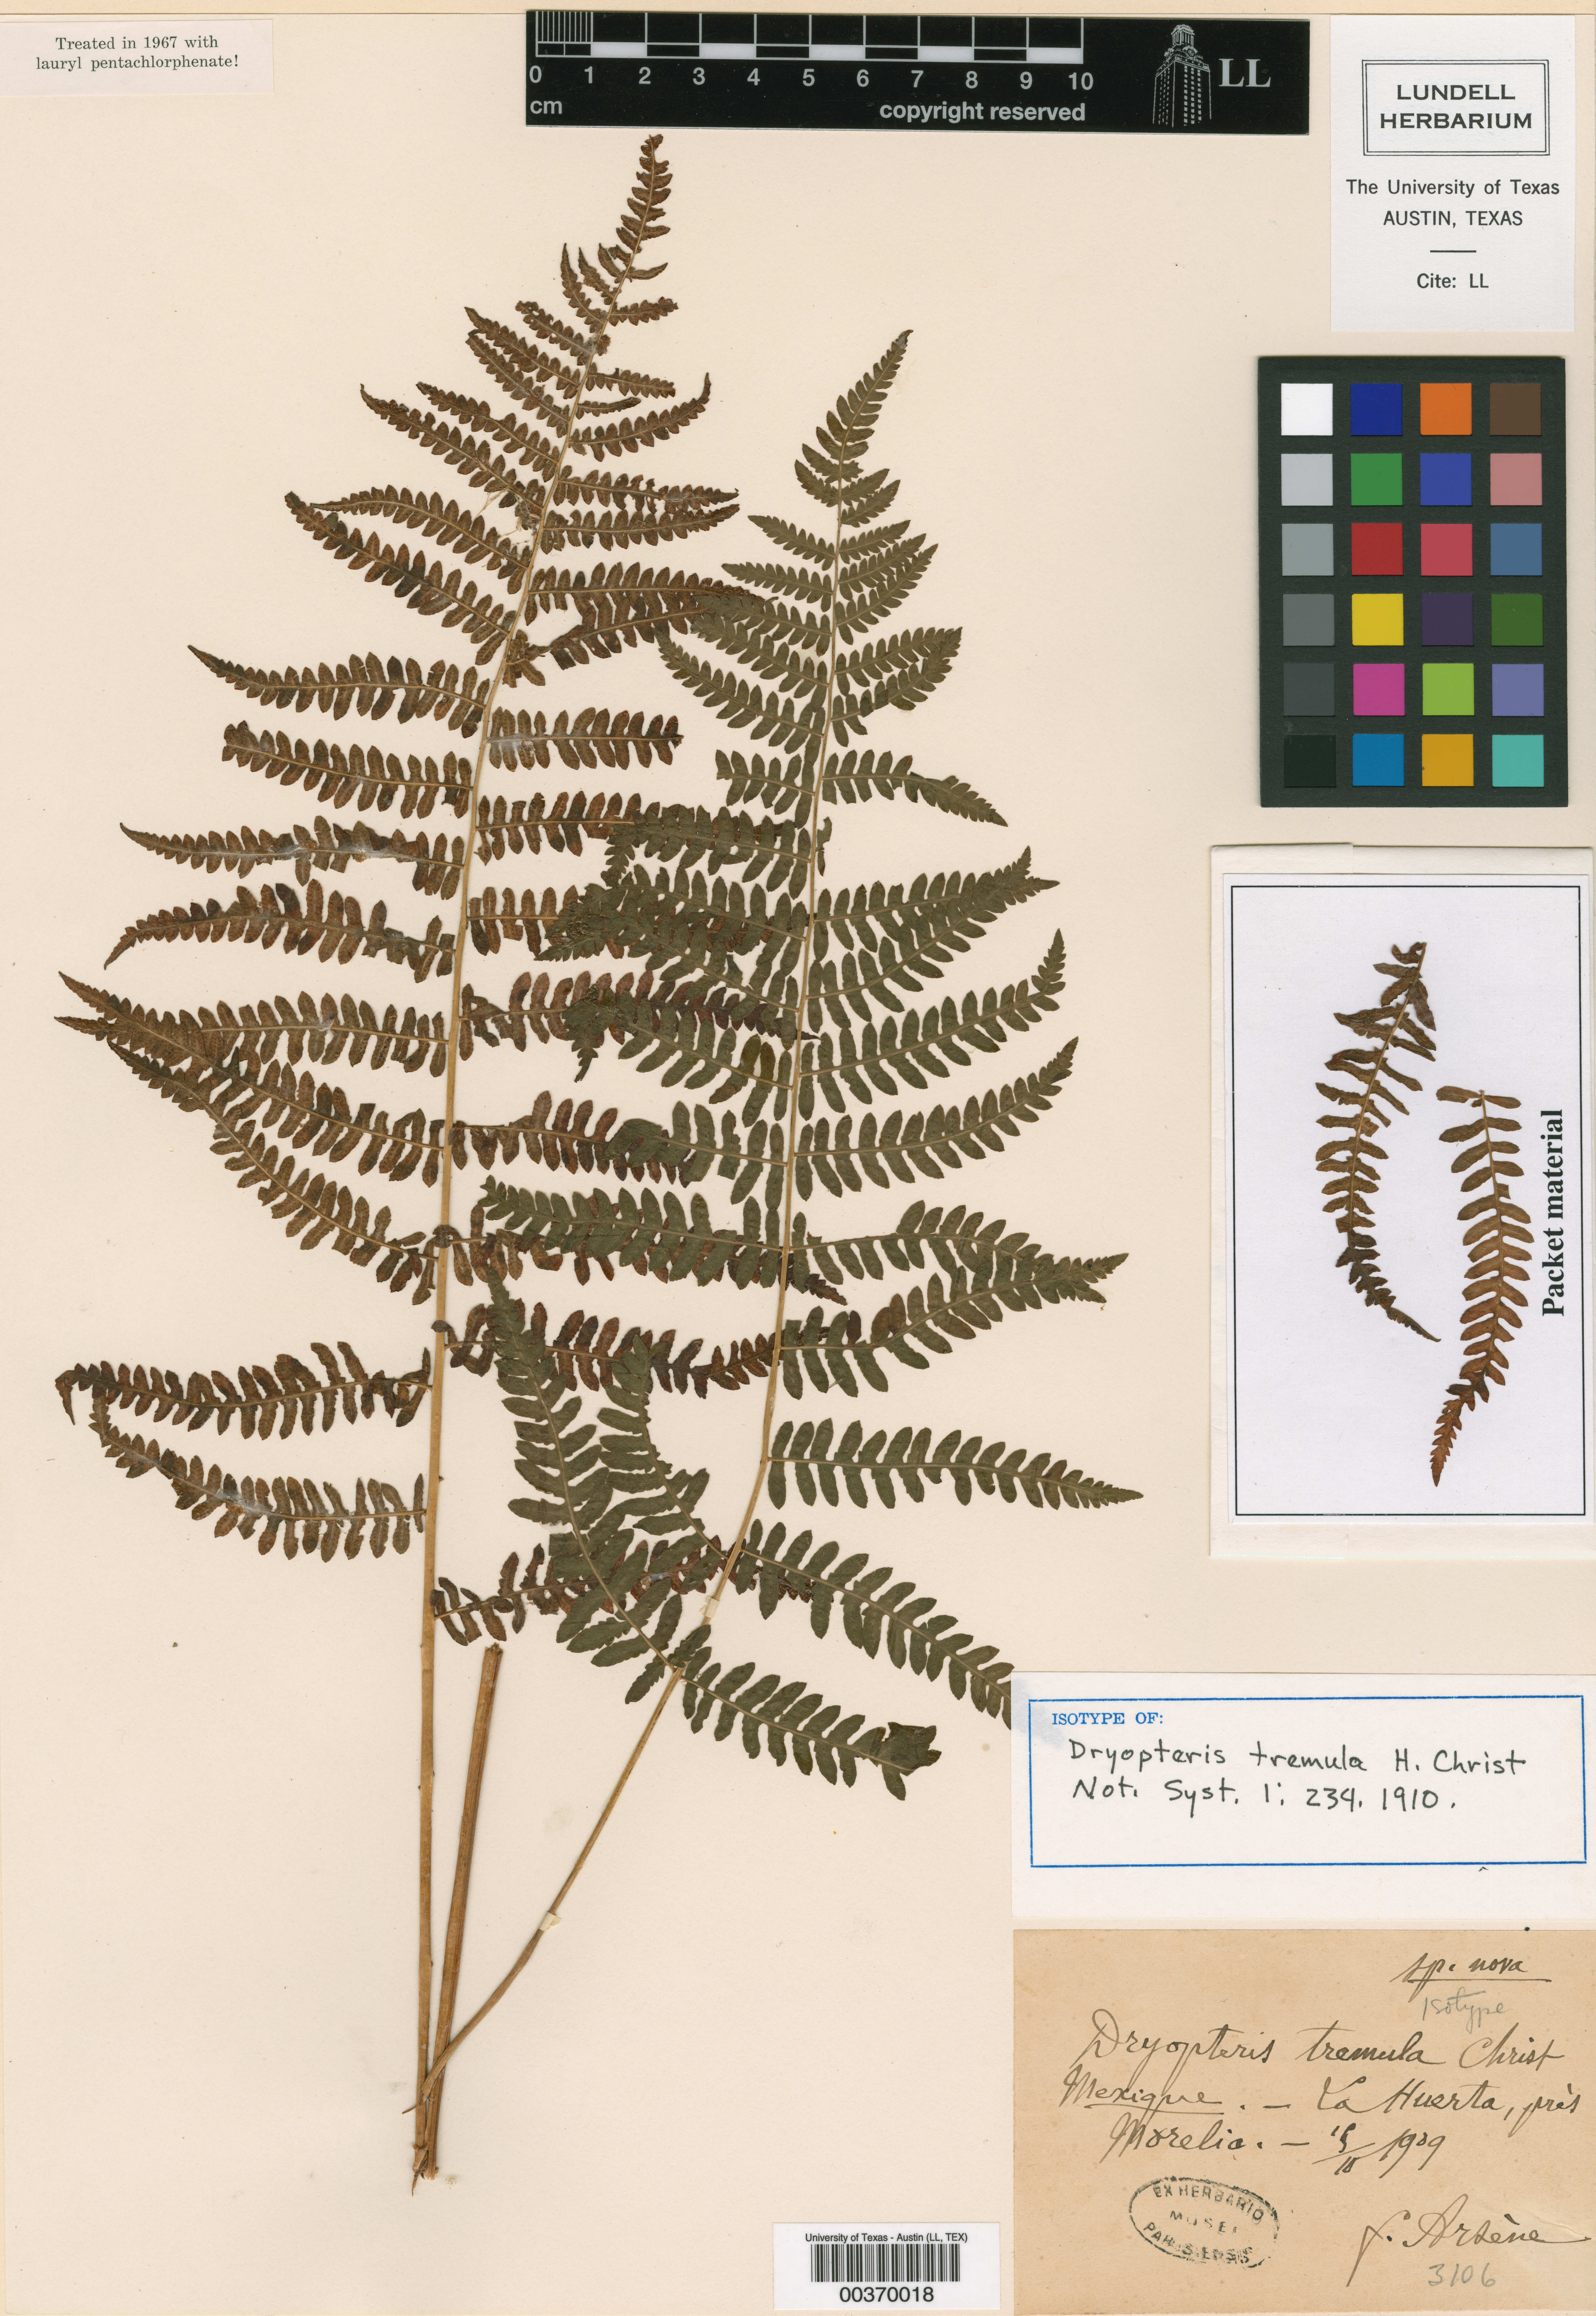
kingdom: Plantae
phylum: Tracheophyta
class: Polypodiopsida
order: Polypodiales
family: Thelypteridaceae
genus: Thelypteris
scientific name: Thelypteris palustris
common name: Marsh fern
